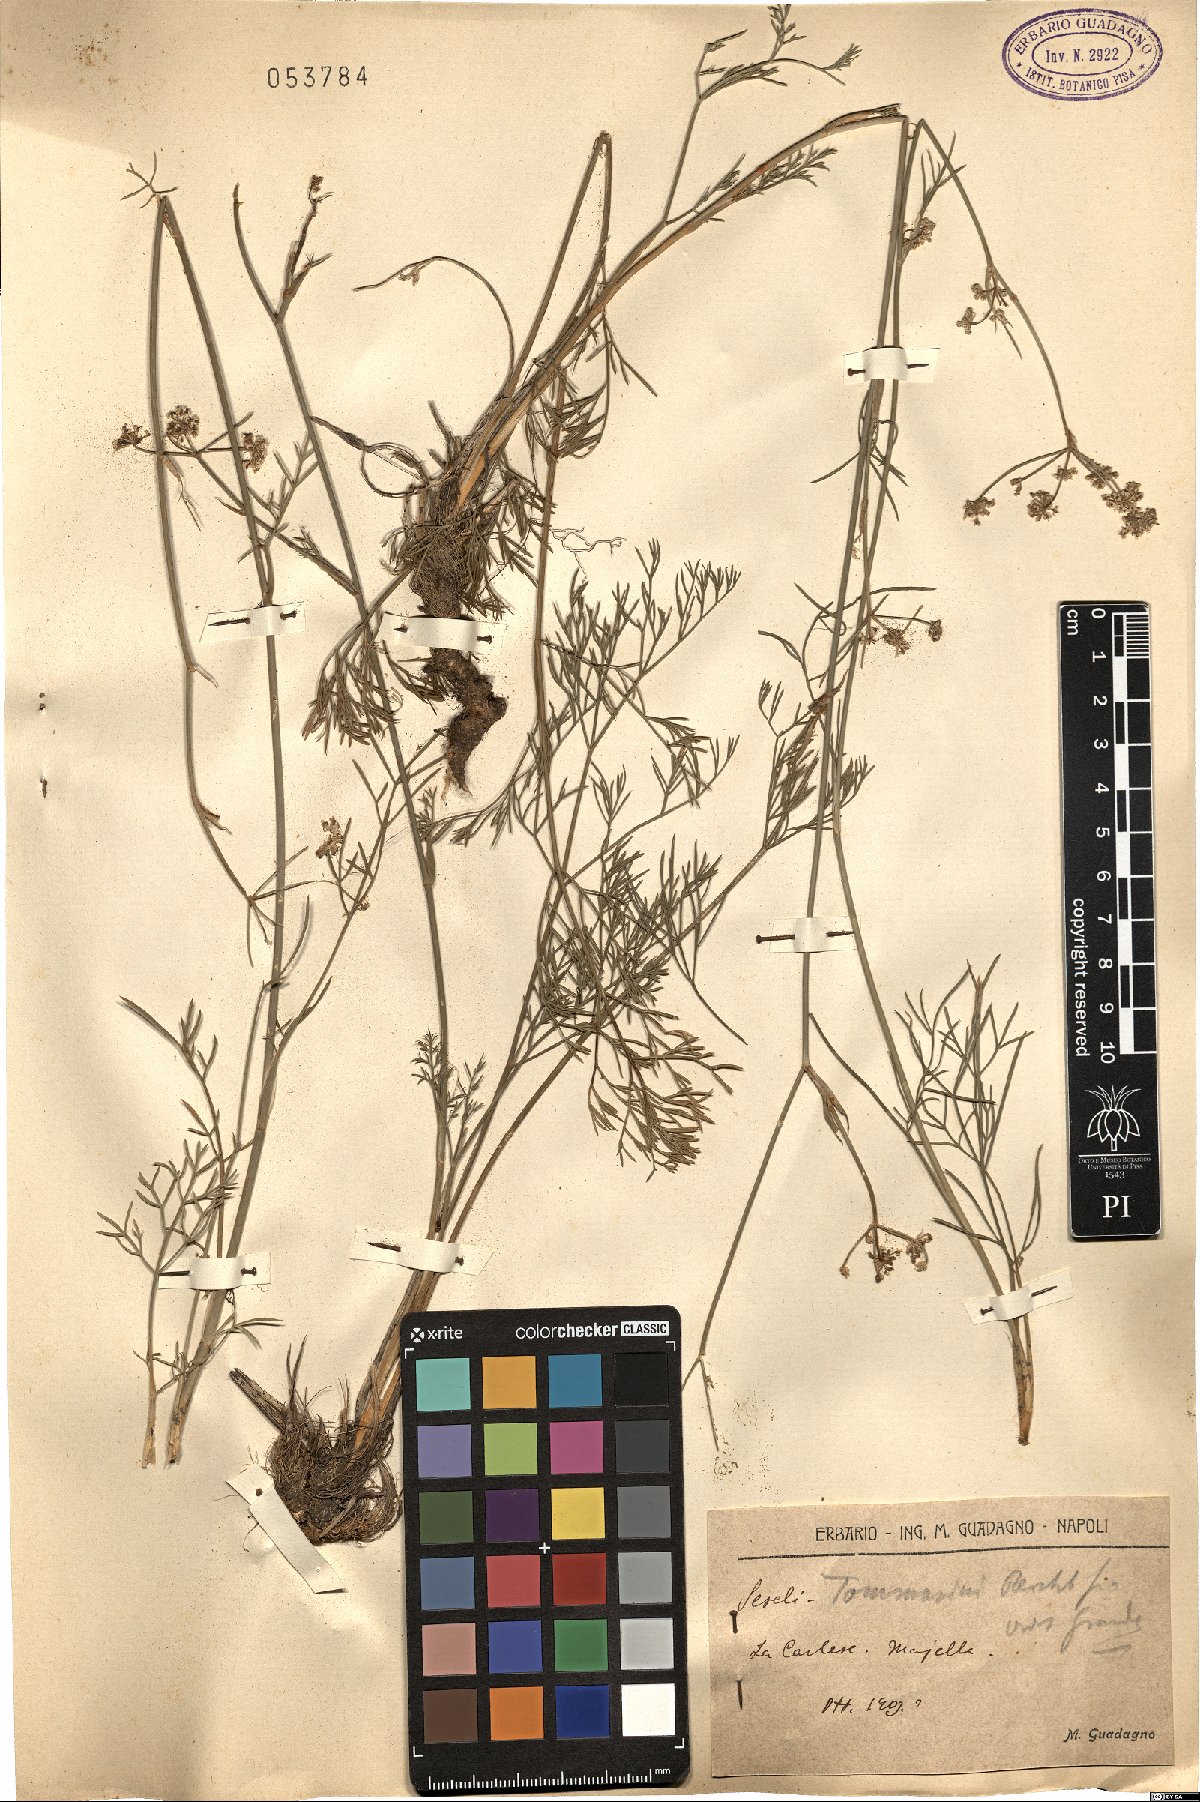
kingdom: Plantae
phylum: Tracheophyta
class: Magnoliopsida
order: Apiales
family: Apiaceae
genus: Seseli
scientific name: Seseli montanum
